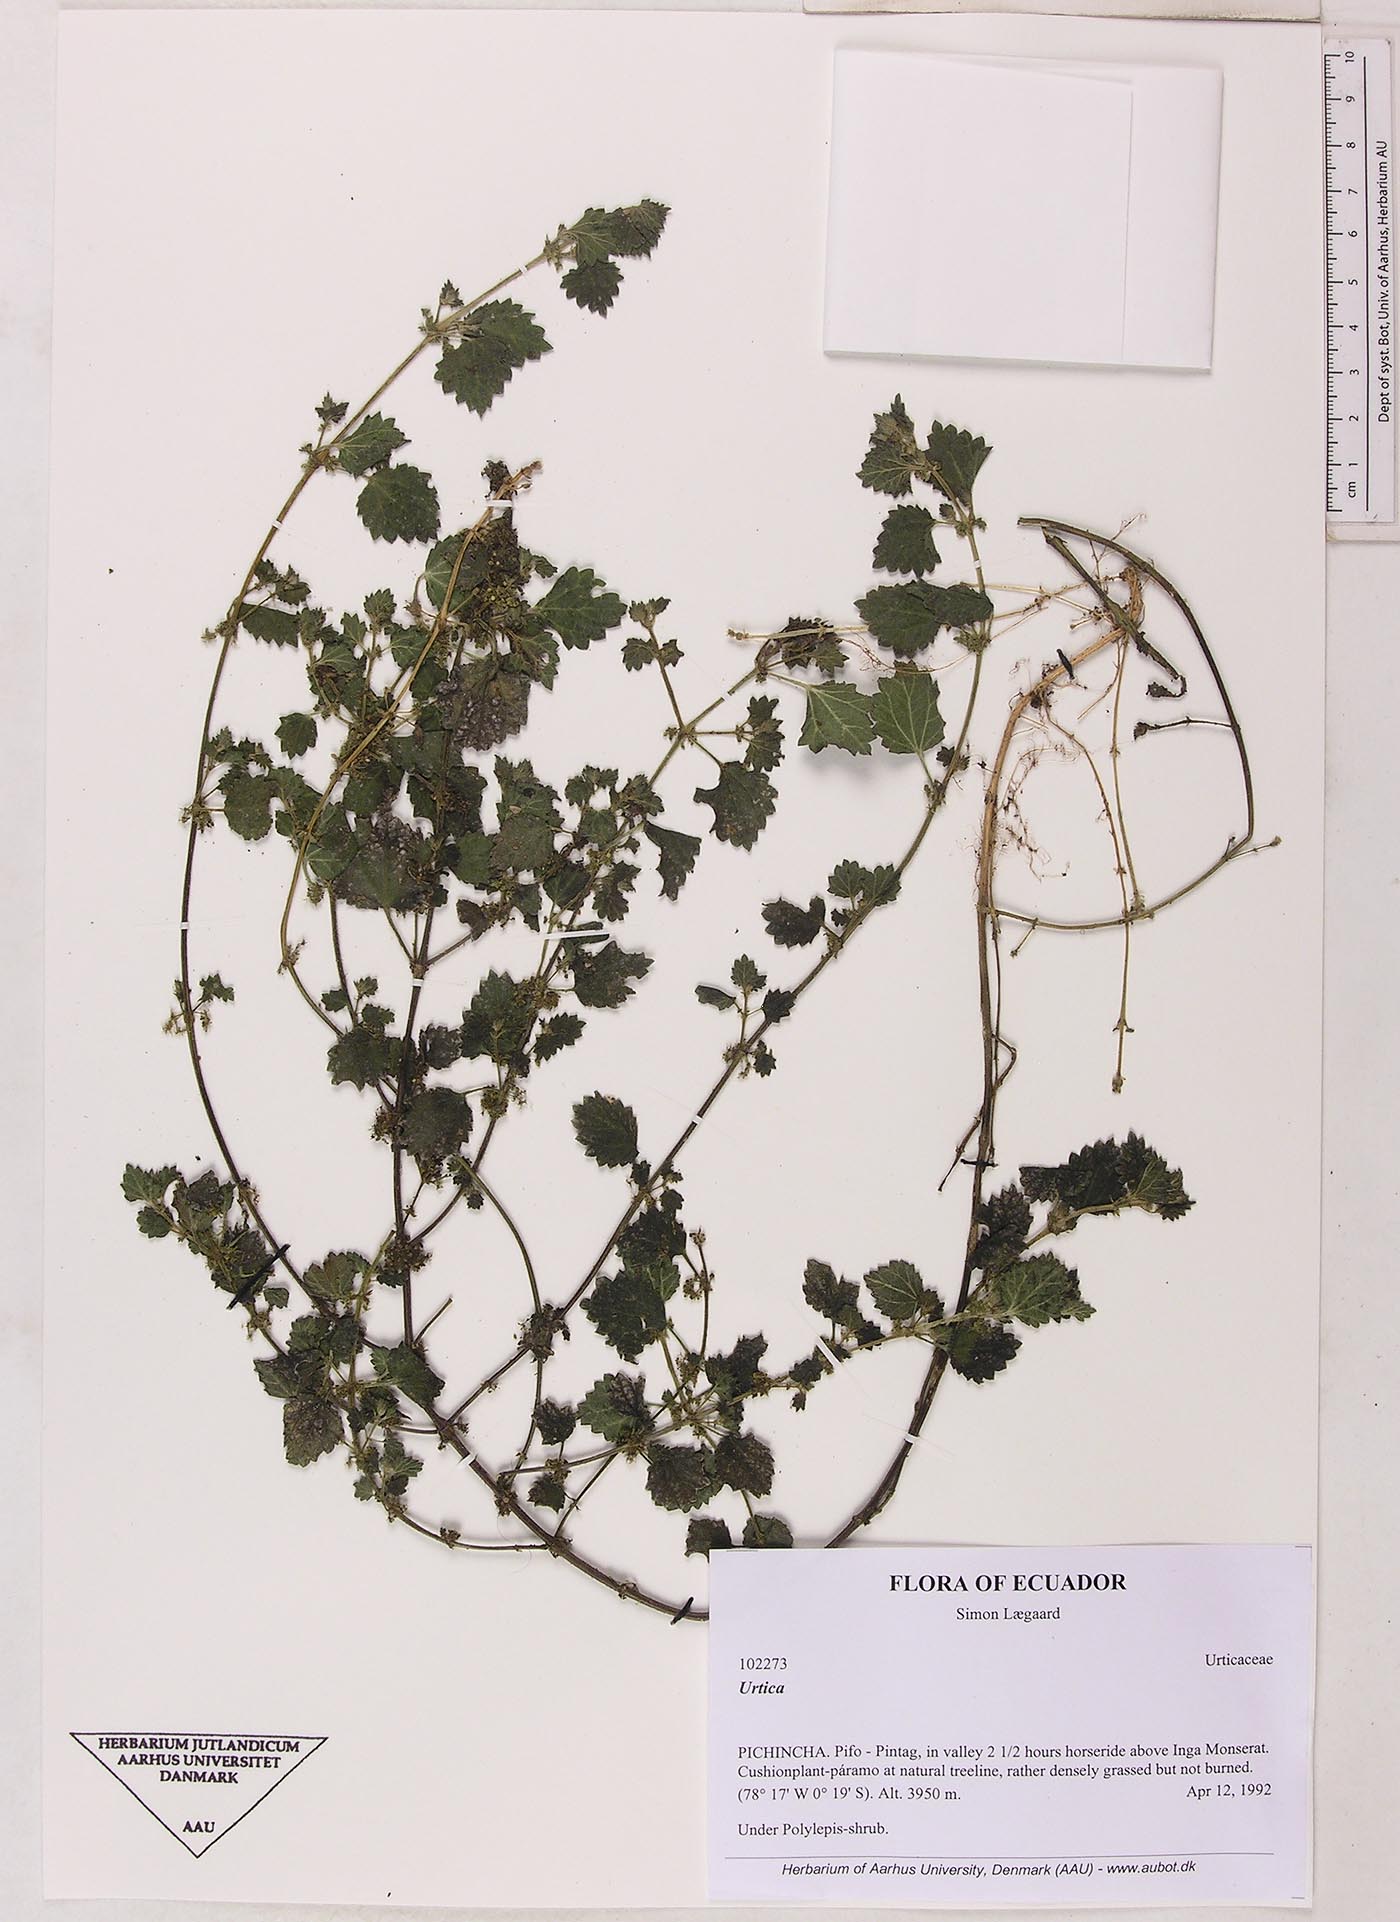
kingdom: Plantae
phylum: Tracheophyta
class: Magnoliopsida
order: Rosales
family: Urticaceae
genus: Urtica
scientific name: Urtica echinata
